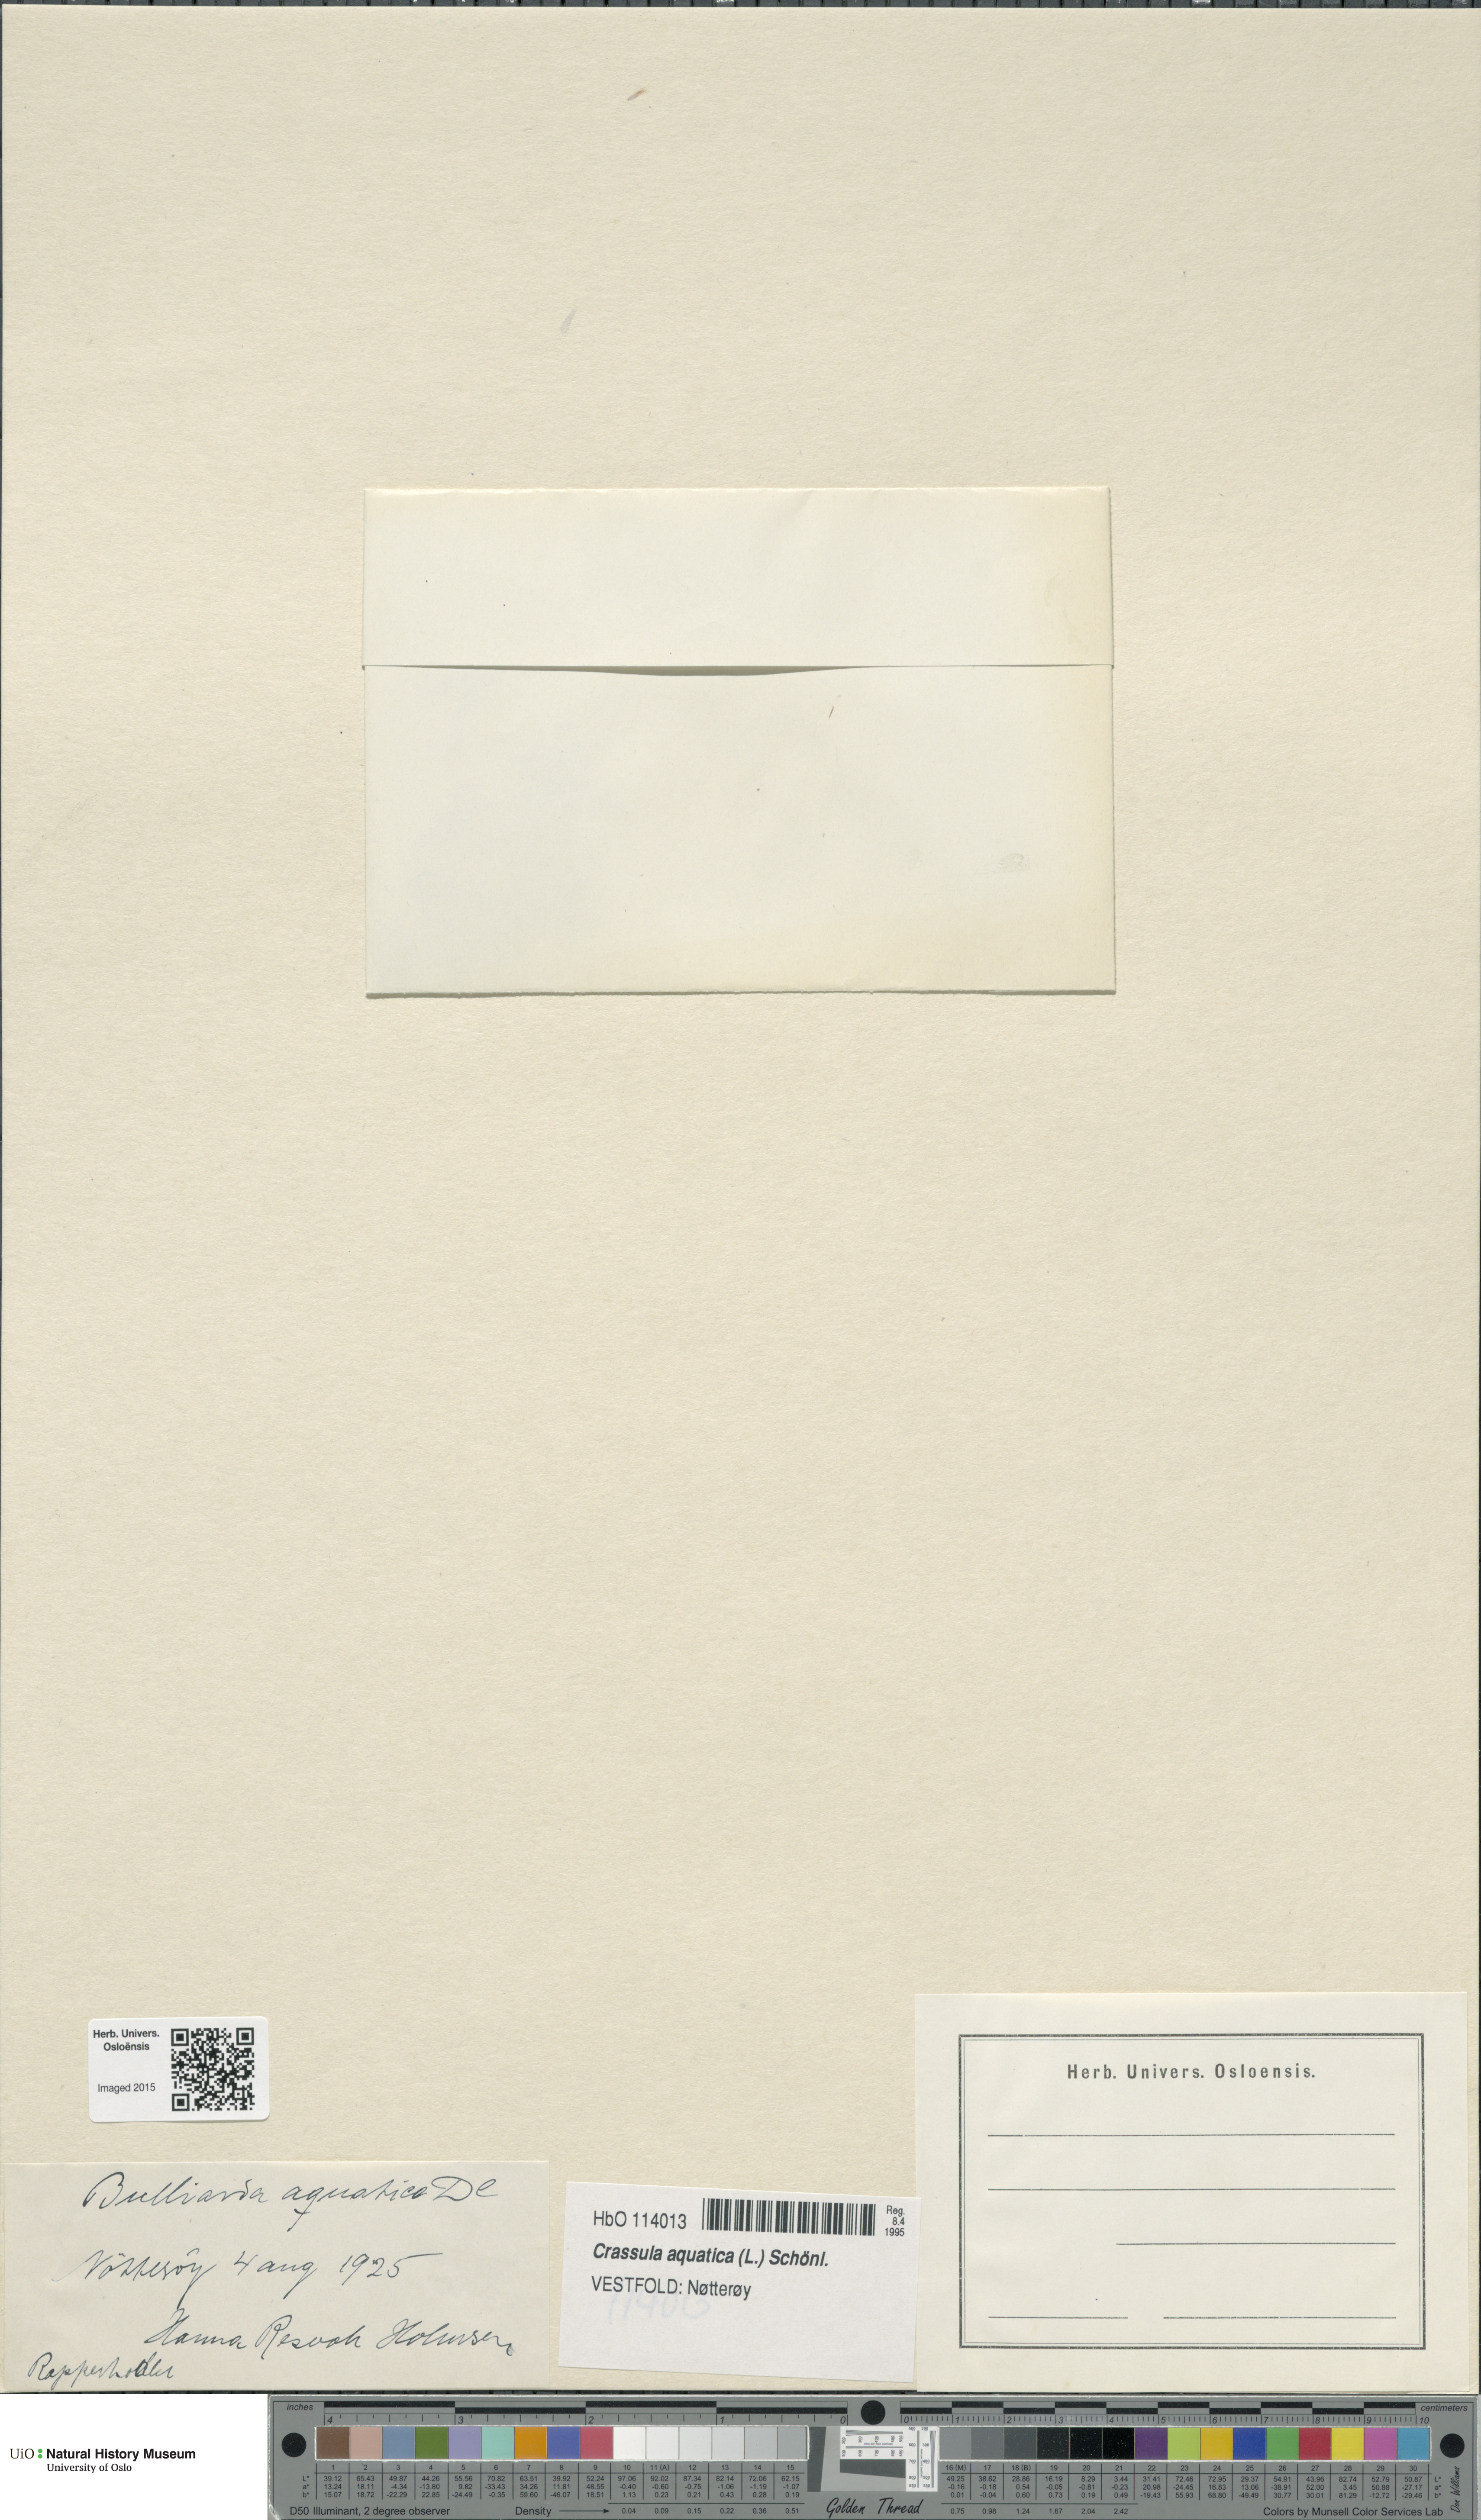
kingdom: Plantae
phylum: Tracheophyta
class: Magnoliopsida
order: Saxifragales
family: Crassulaceae
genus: Crassula
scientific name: Crassula aquatica
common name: Pigmyweed
